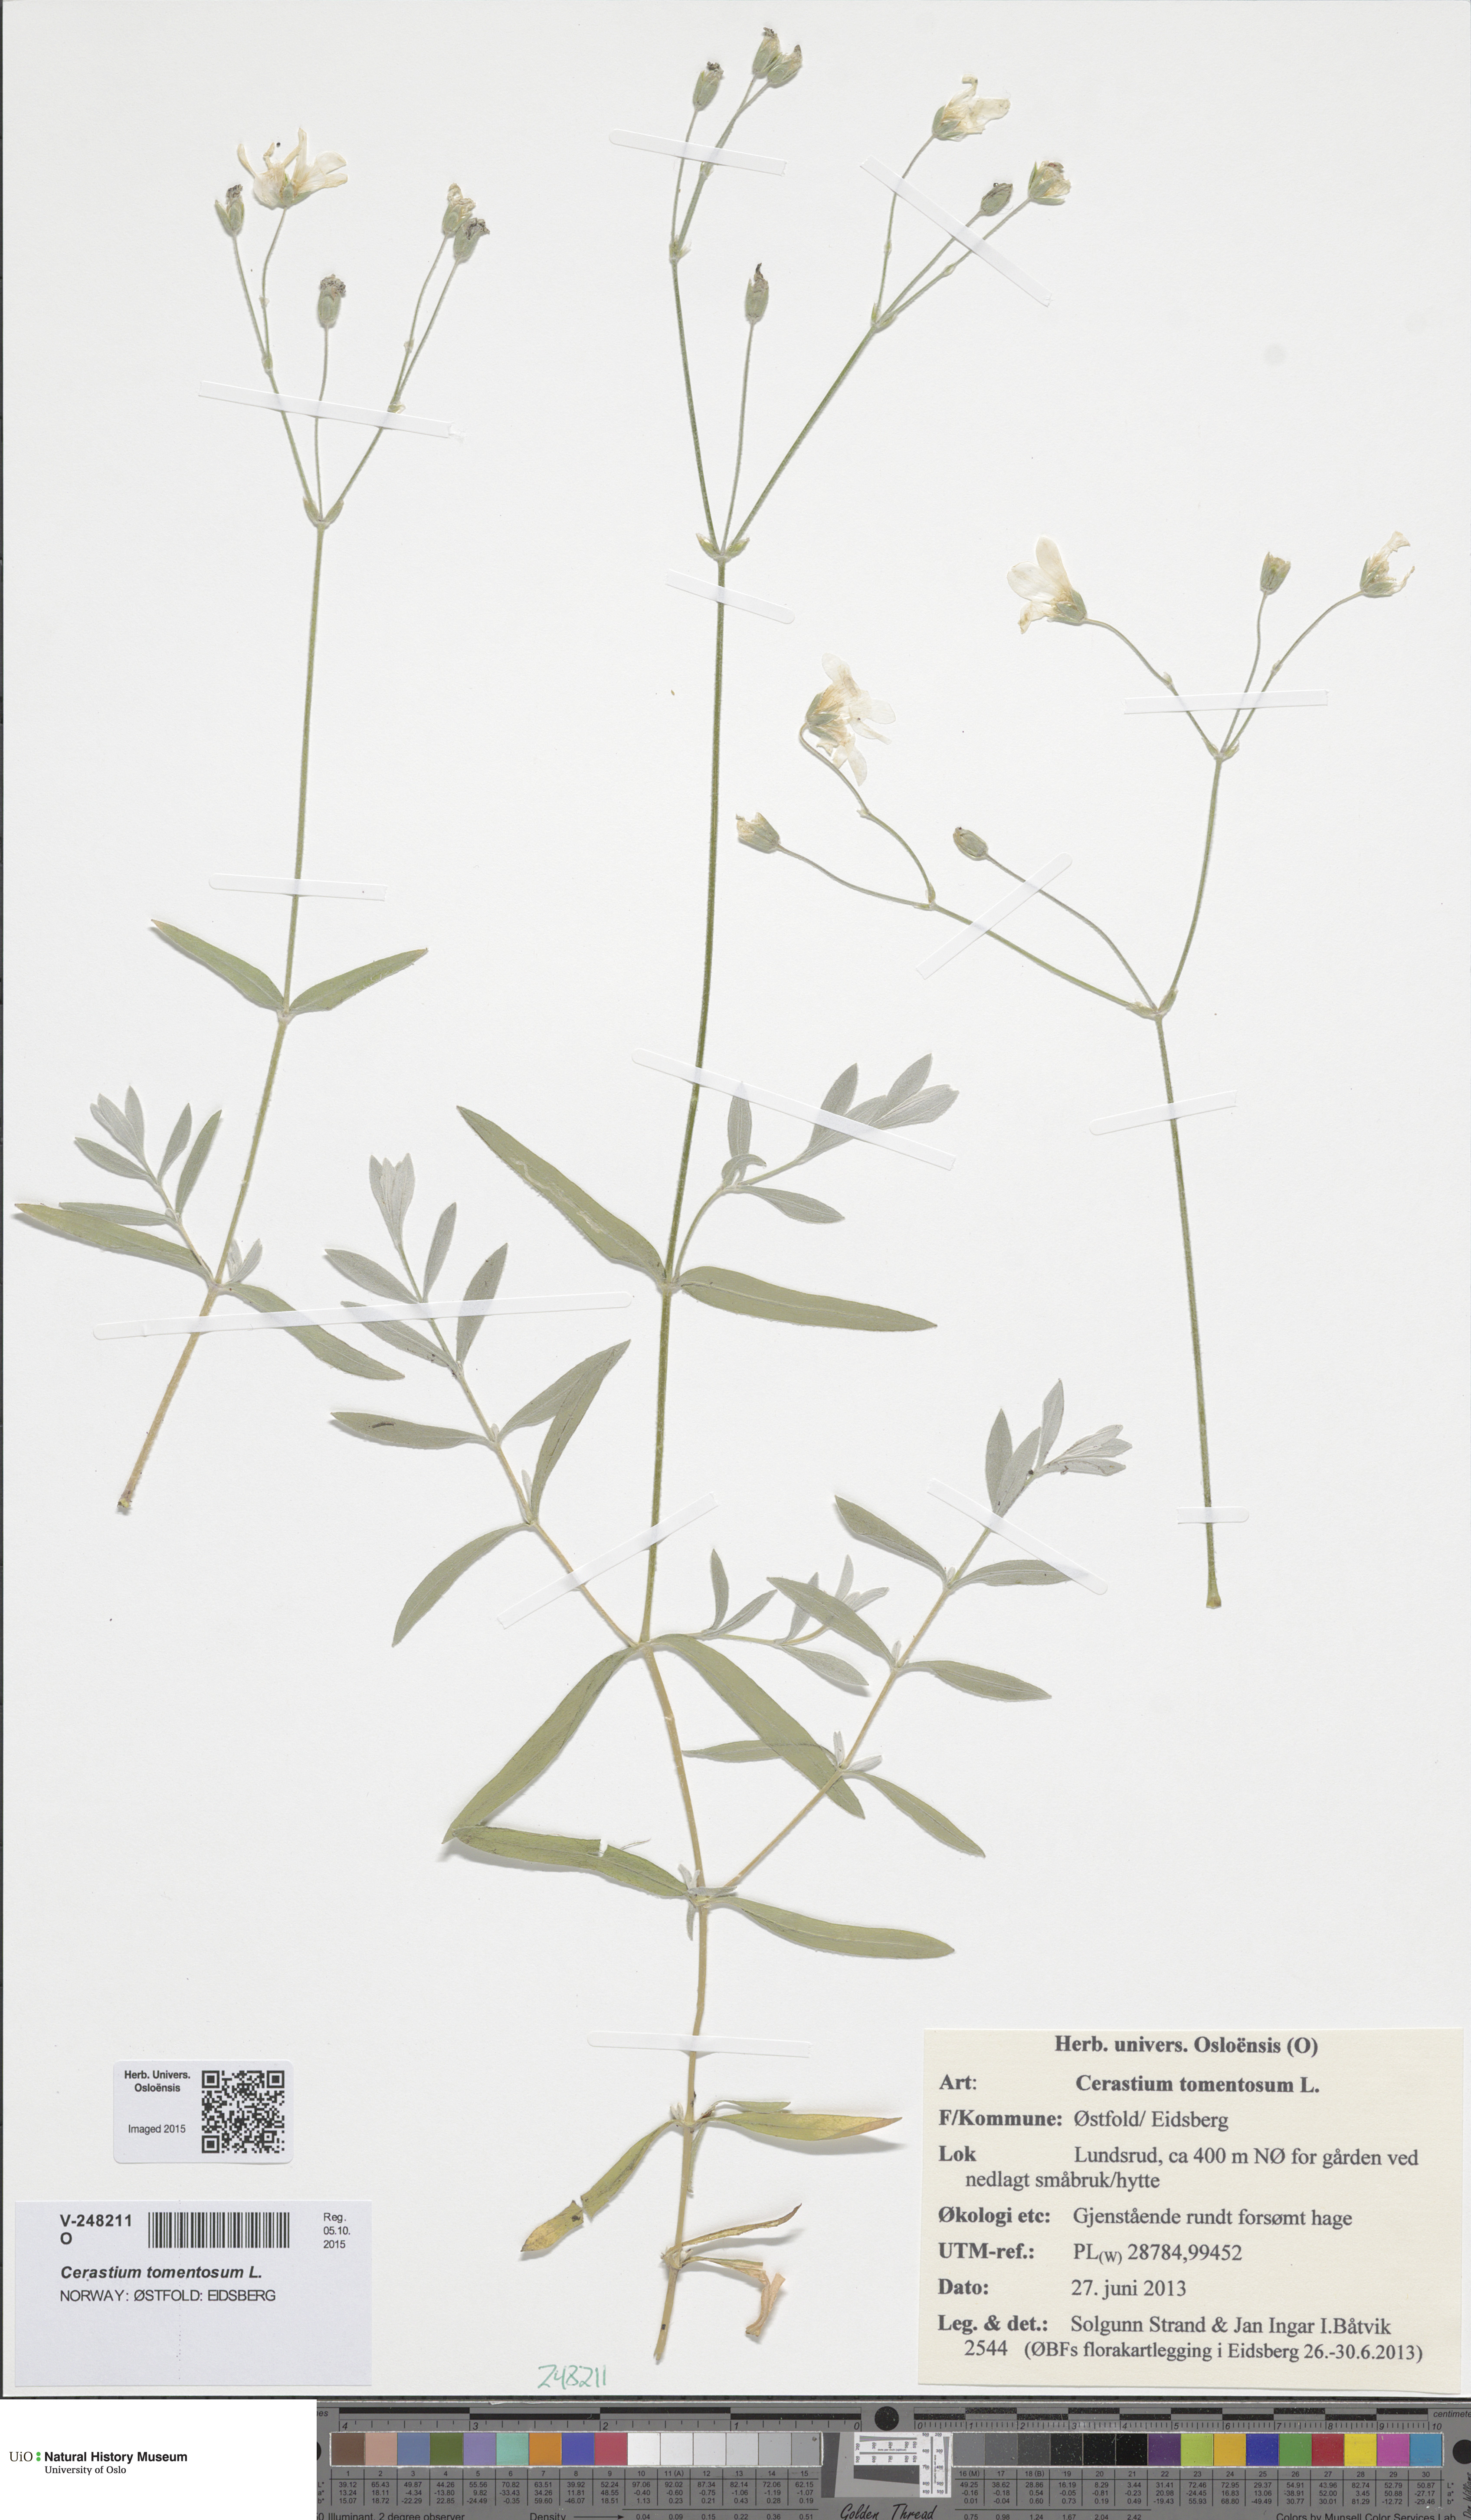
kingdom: Plantae
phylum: Tracheophyta
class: Magnoliopsida
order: Caryophyllales
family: Caryophyllaceae
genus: Cerastium
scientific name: Cerastium tomentosum
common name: Snow-in-summer
